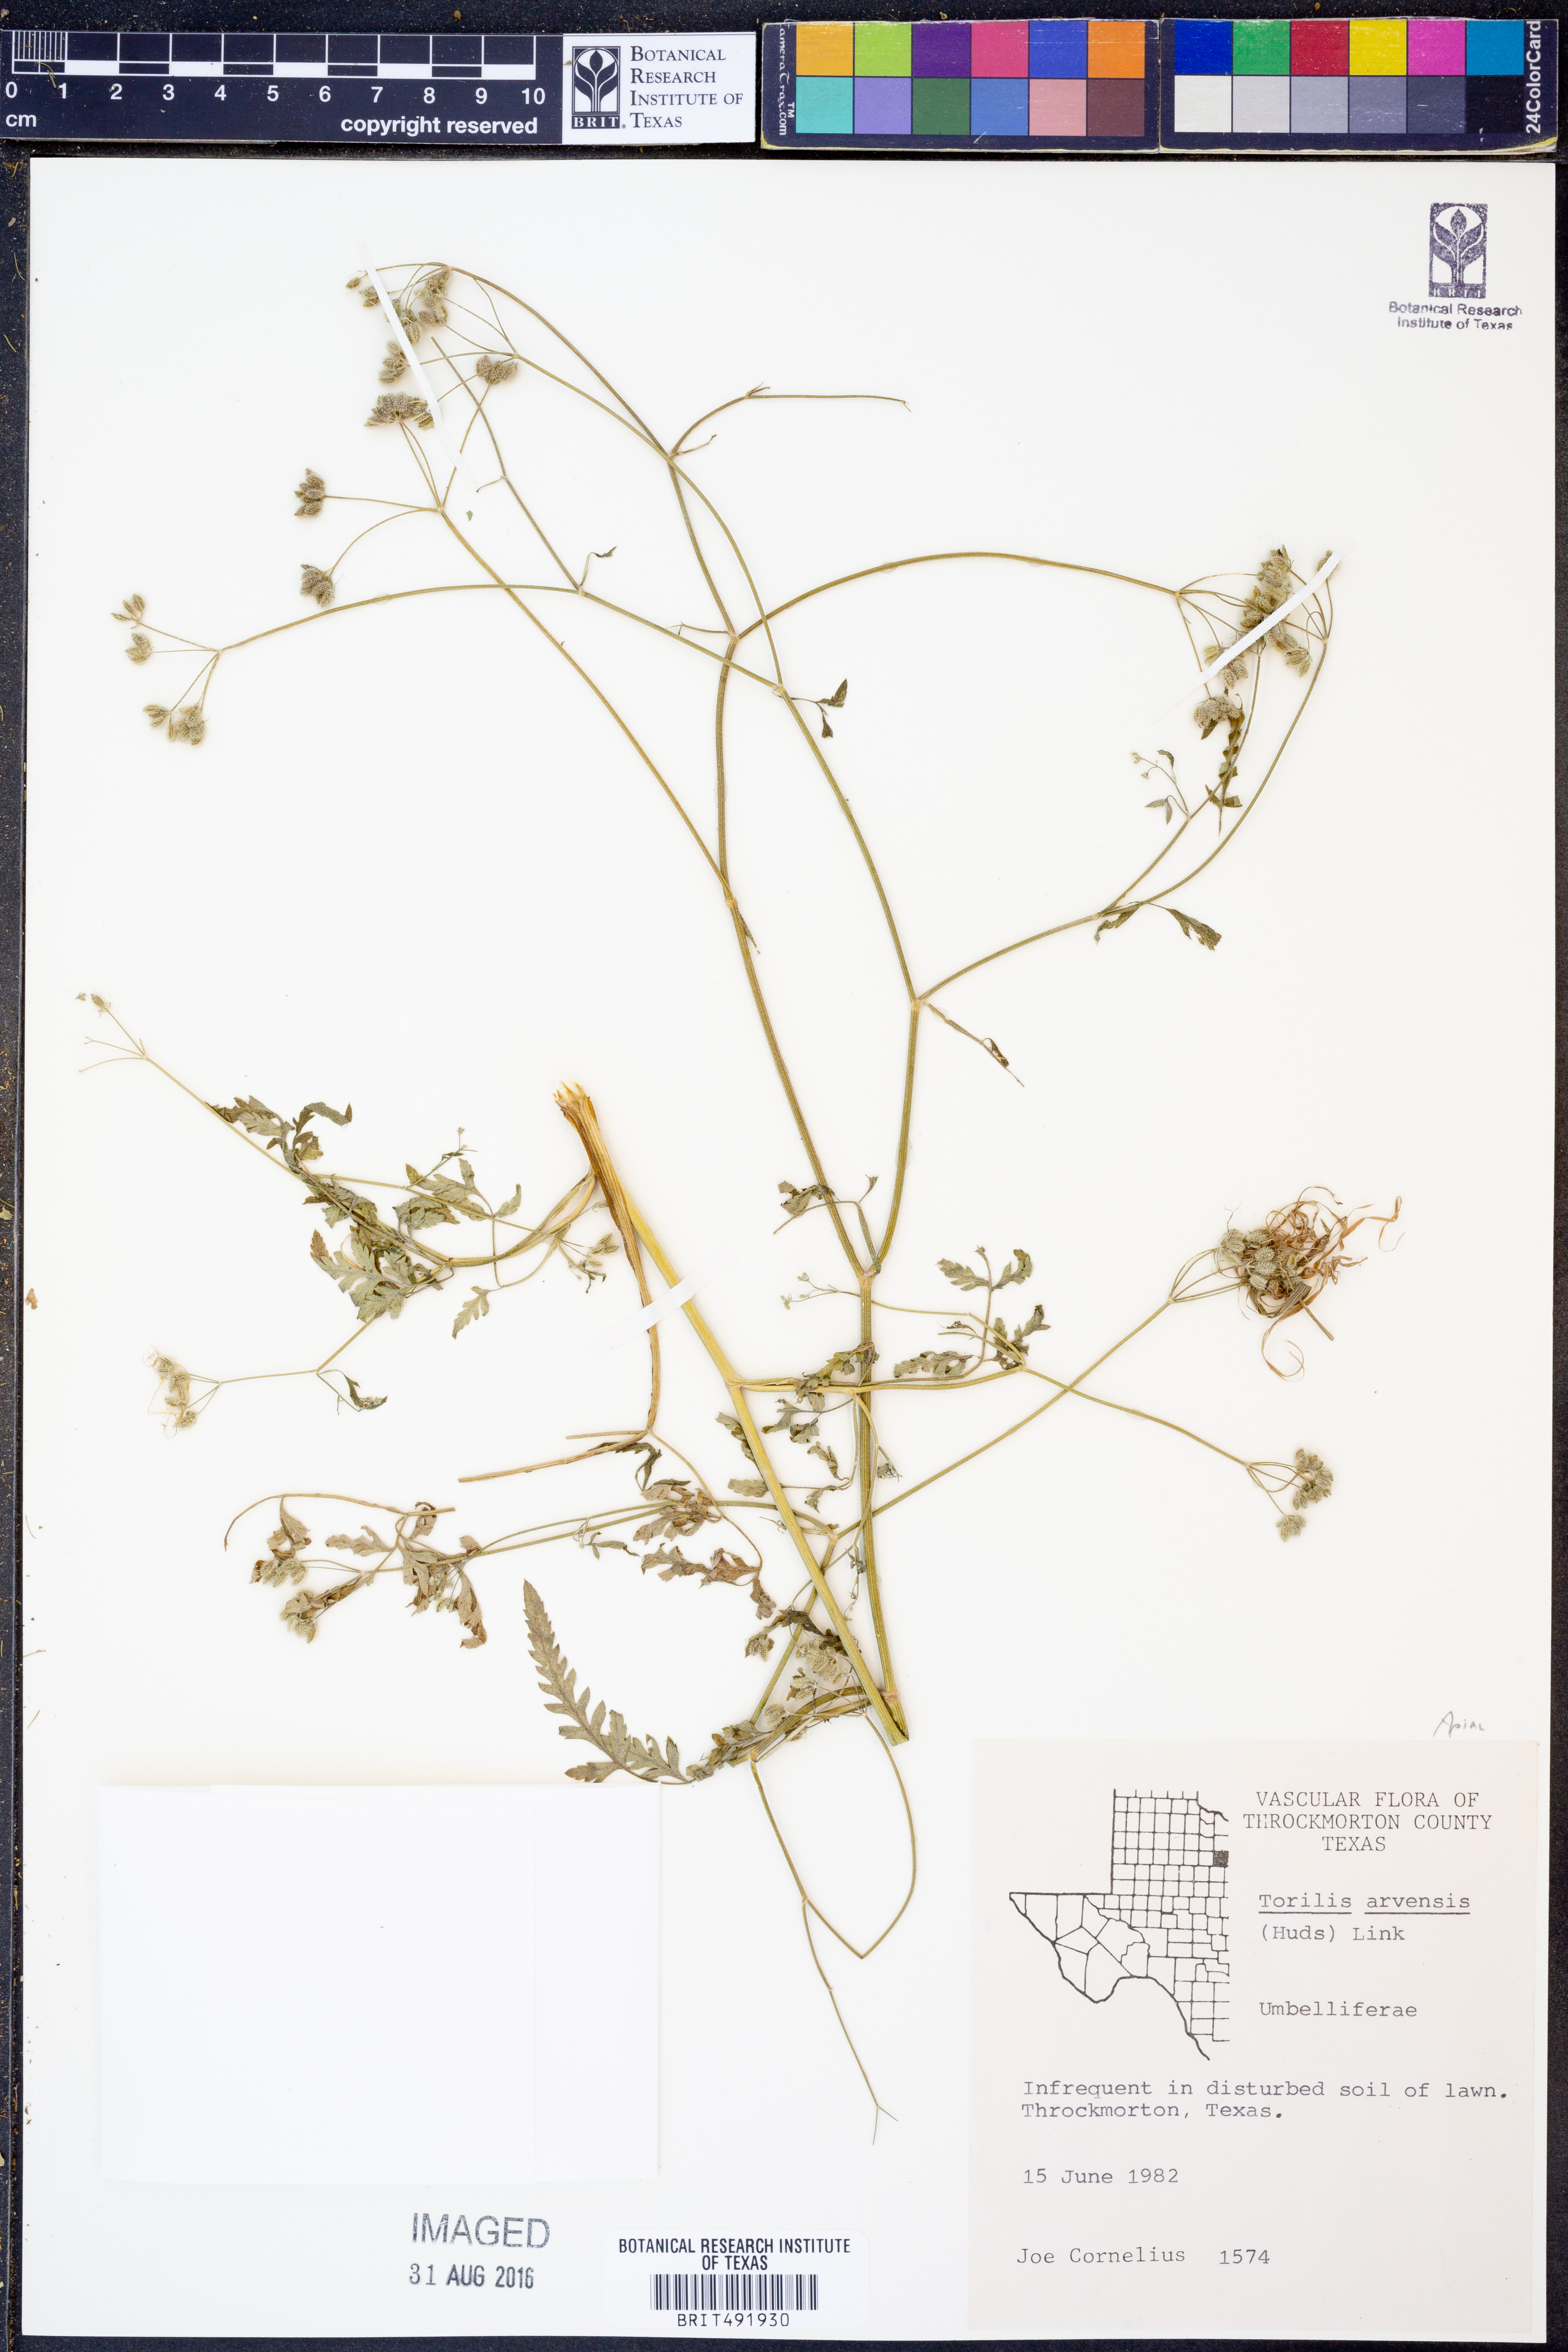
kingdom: Plantae
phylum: Tracheophyta
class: Magnoliopsida
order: Apiales
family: Apiaceae
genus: Torilis
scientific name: Torilis arvensis
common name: Spreading hedge-parsley
